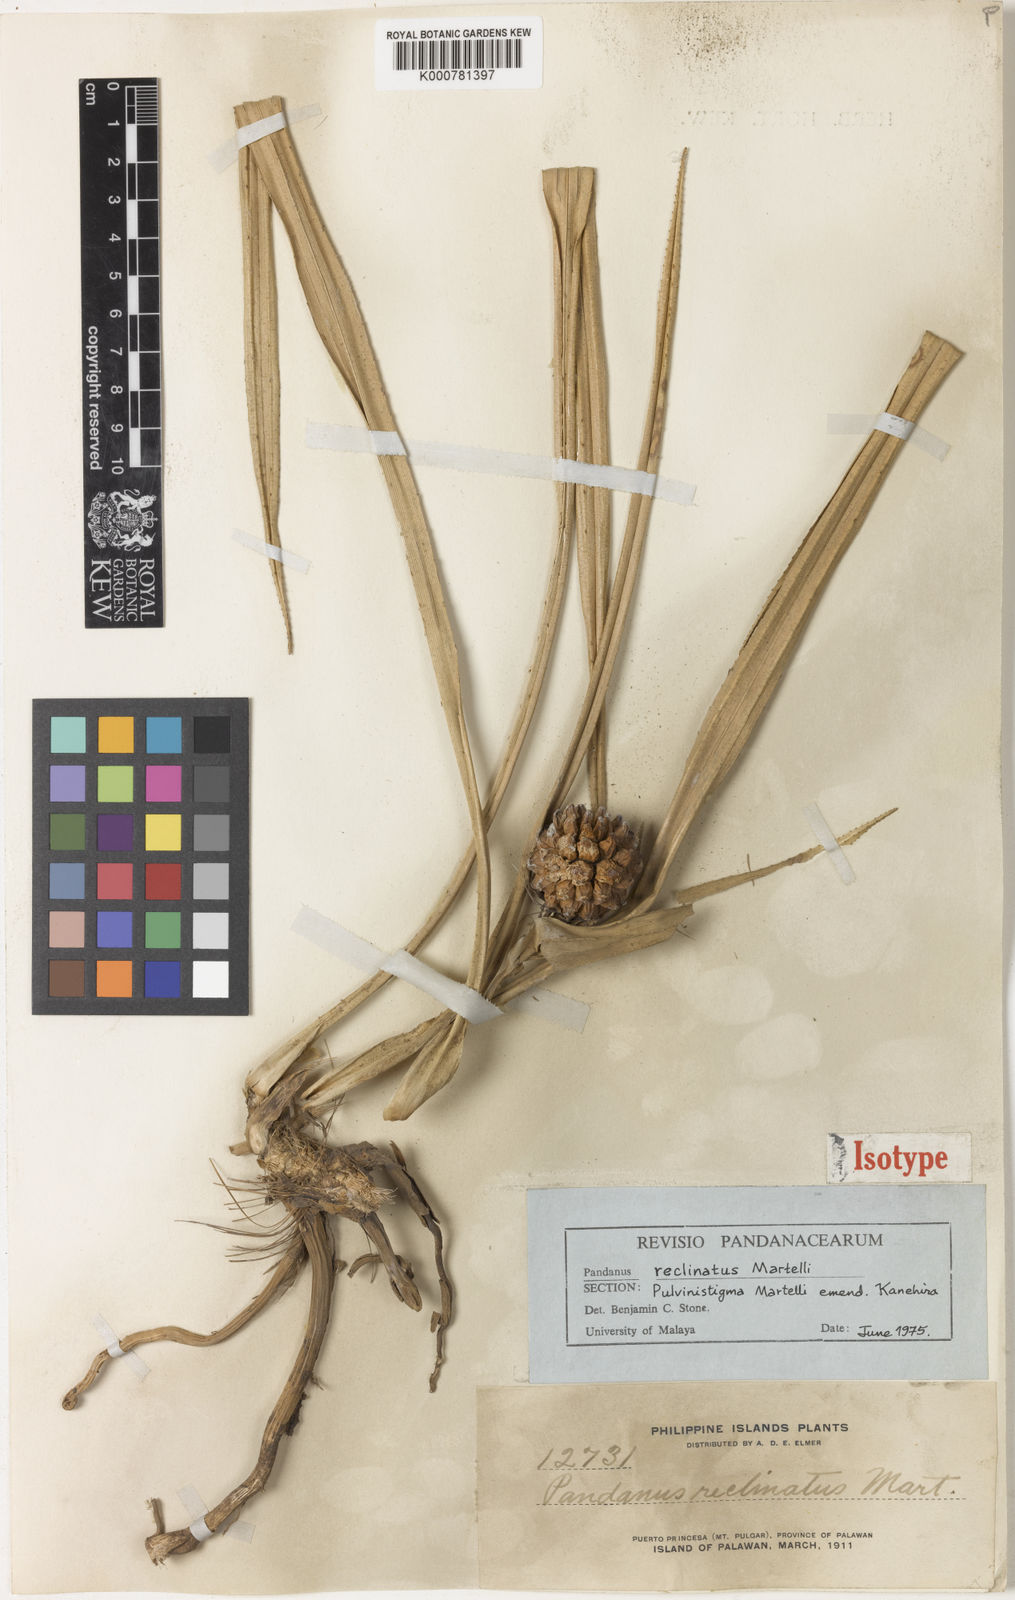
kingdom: Plantae
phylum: Tracheophyta
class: Liliopsida
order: Pandanales
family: Pandanaceae
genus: Pandanus
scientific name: Pandanus reclinatus
